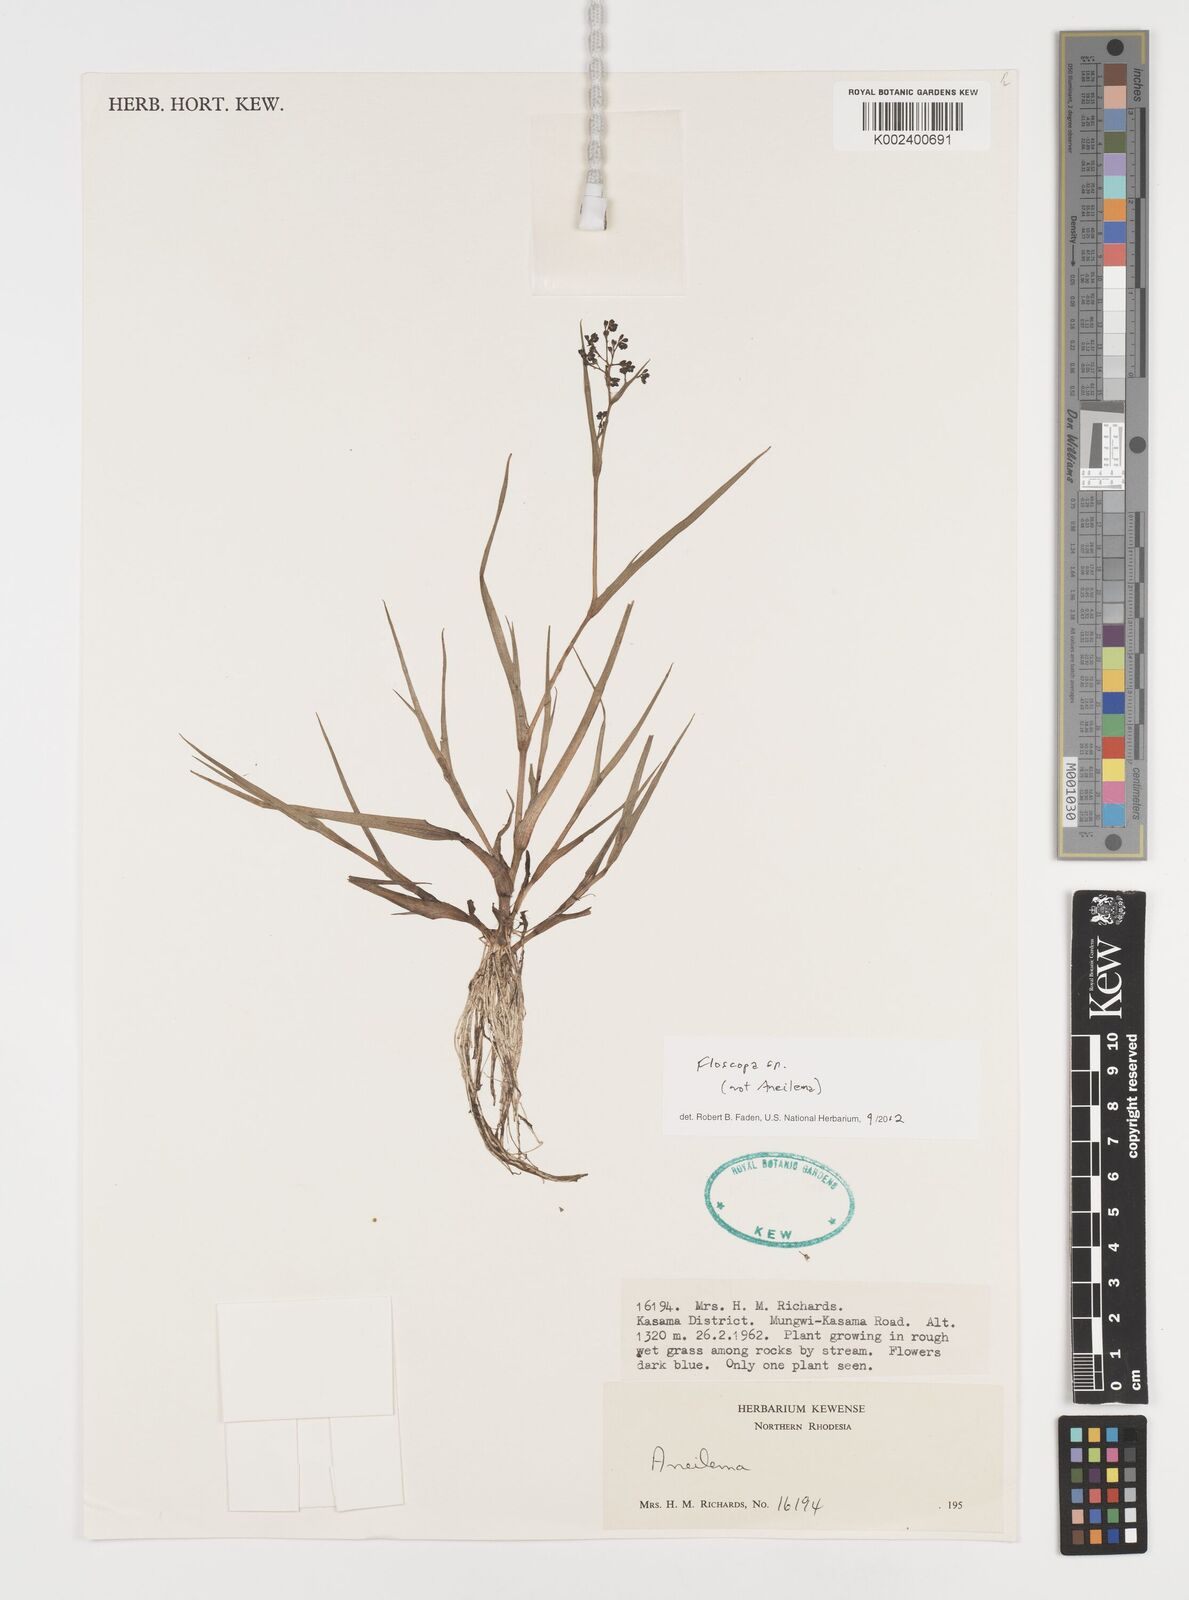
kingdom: Plantae
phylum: Tracheophyta
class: Liliopsida
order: Commelinales
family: Commelinaceae
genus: Floscopa
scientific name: Floscopa
